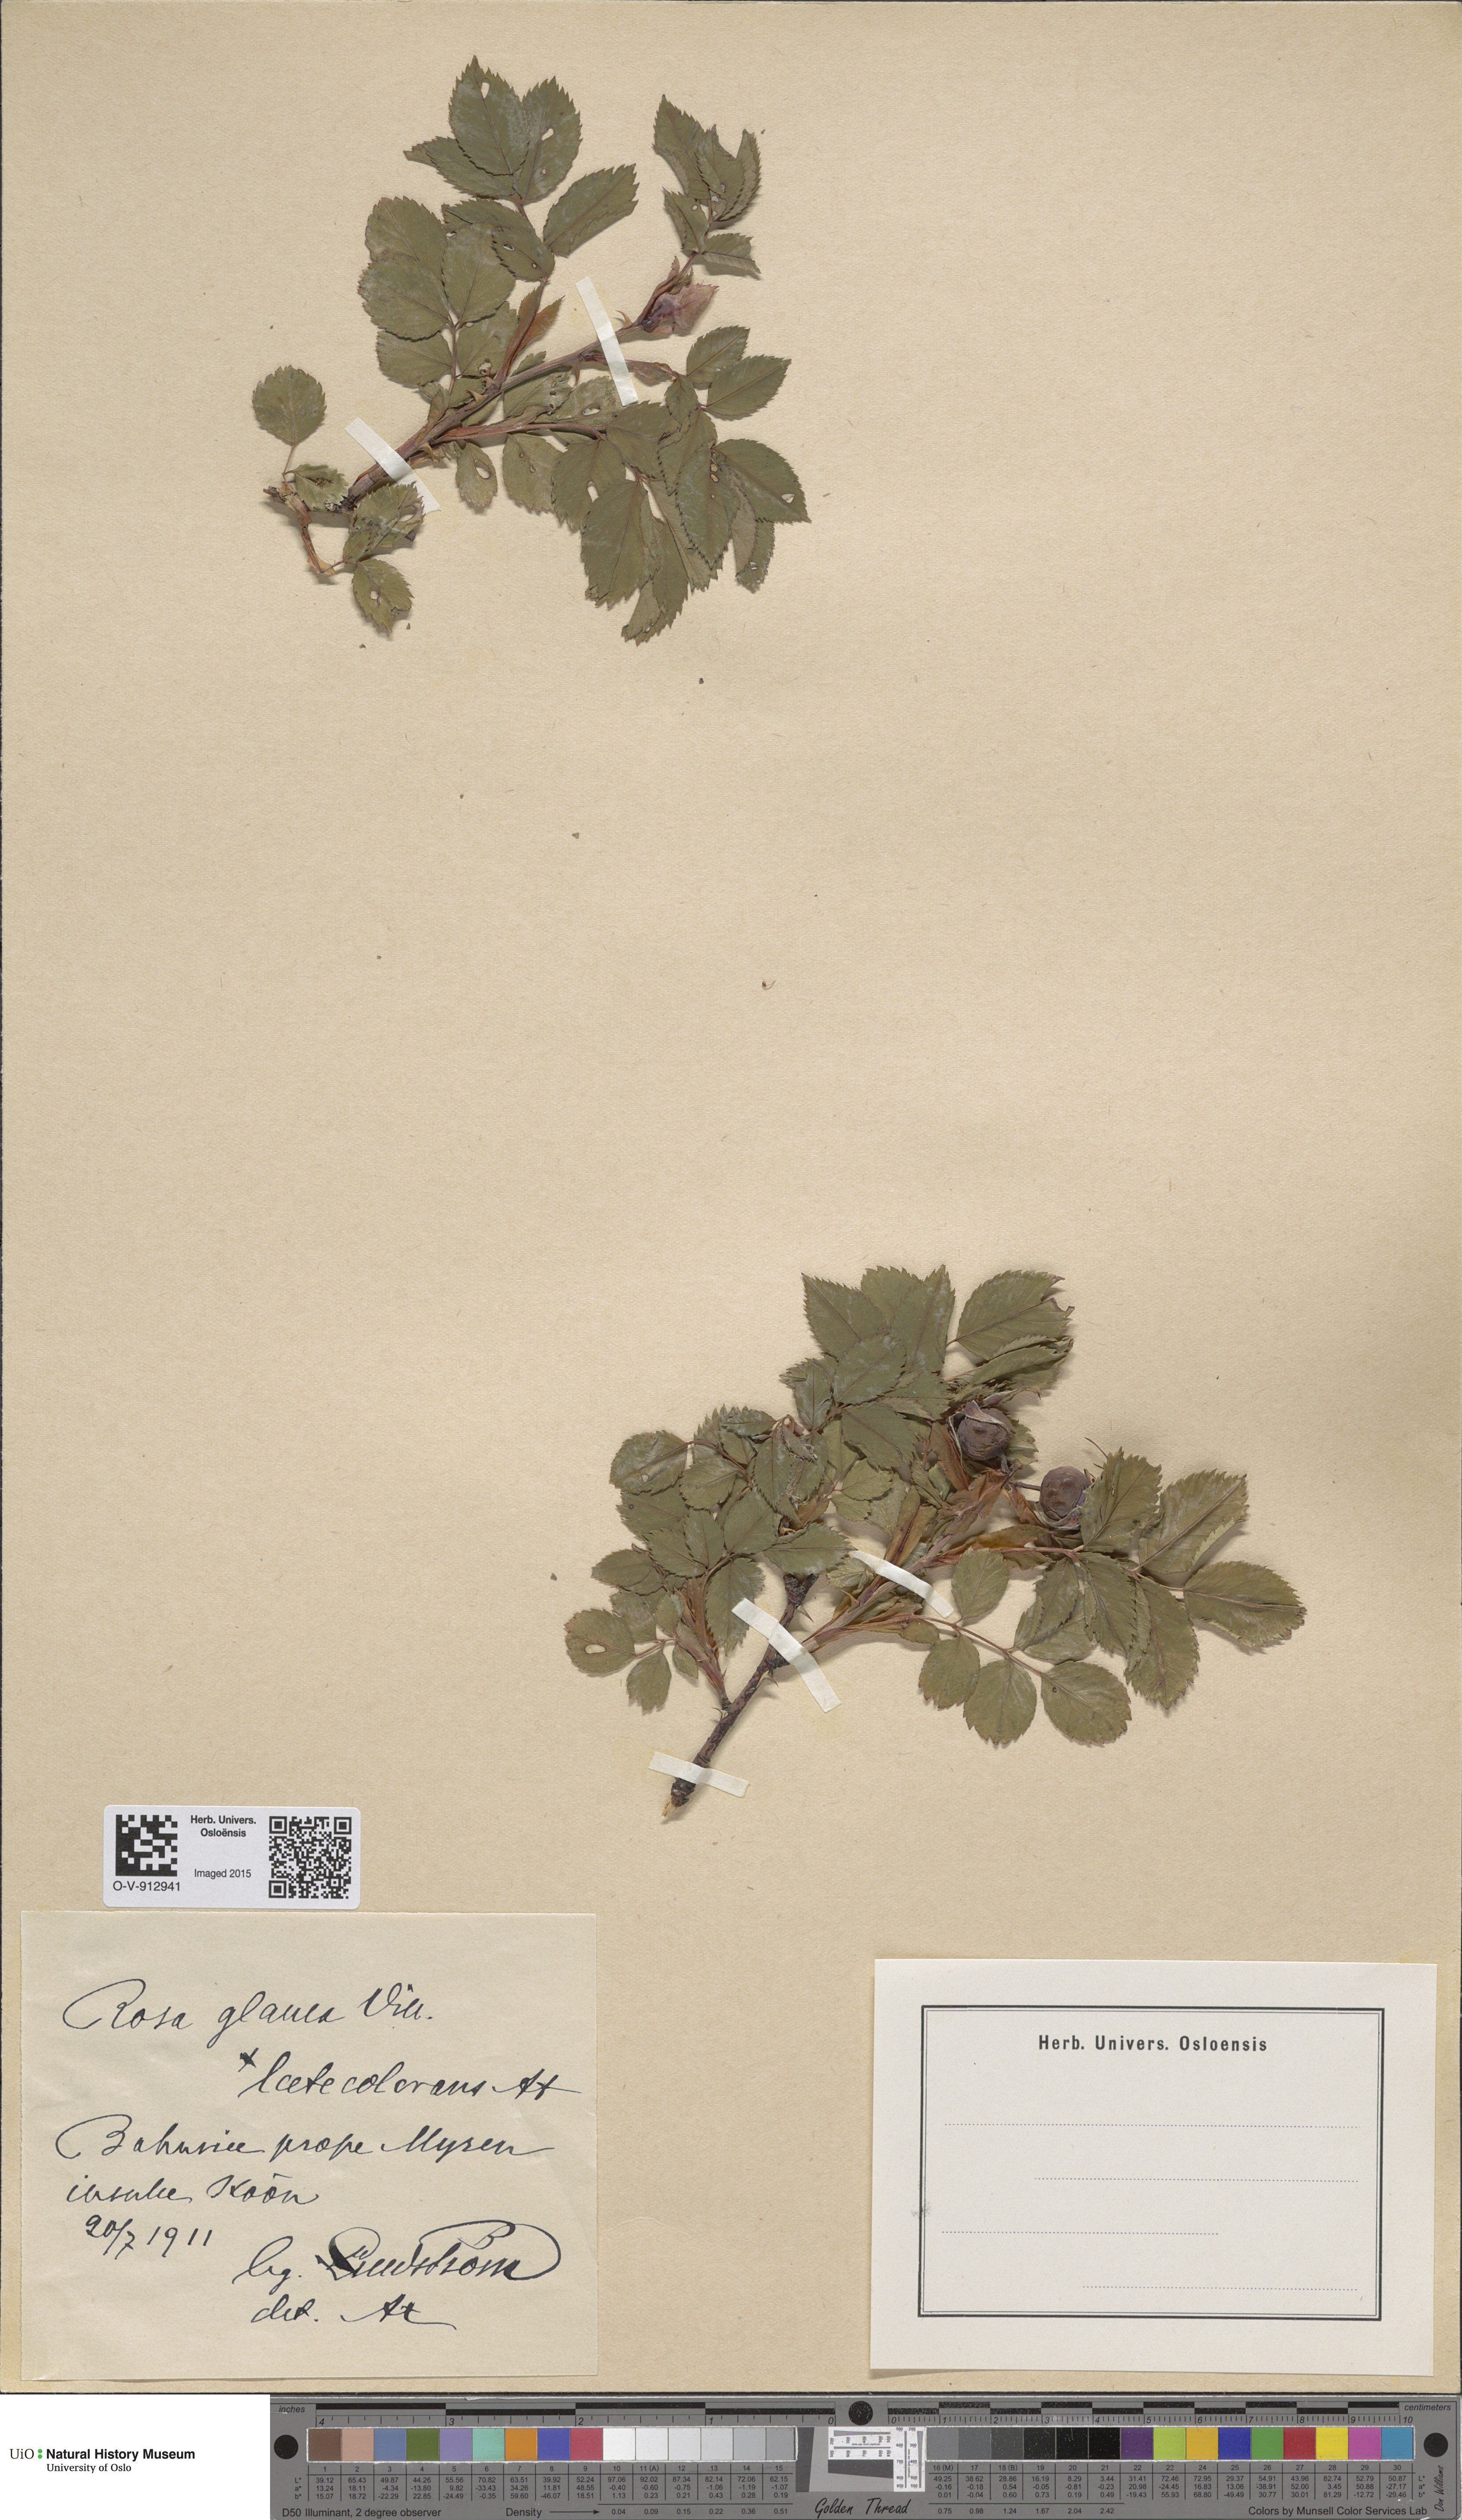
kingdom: Plantae
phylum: Tracheophyta
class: Magnoliopsida
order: Rosales
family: Rosaceae
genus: Rosa
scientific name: Rosa glauca
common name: Redleaf rose
